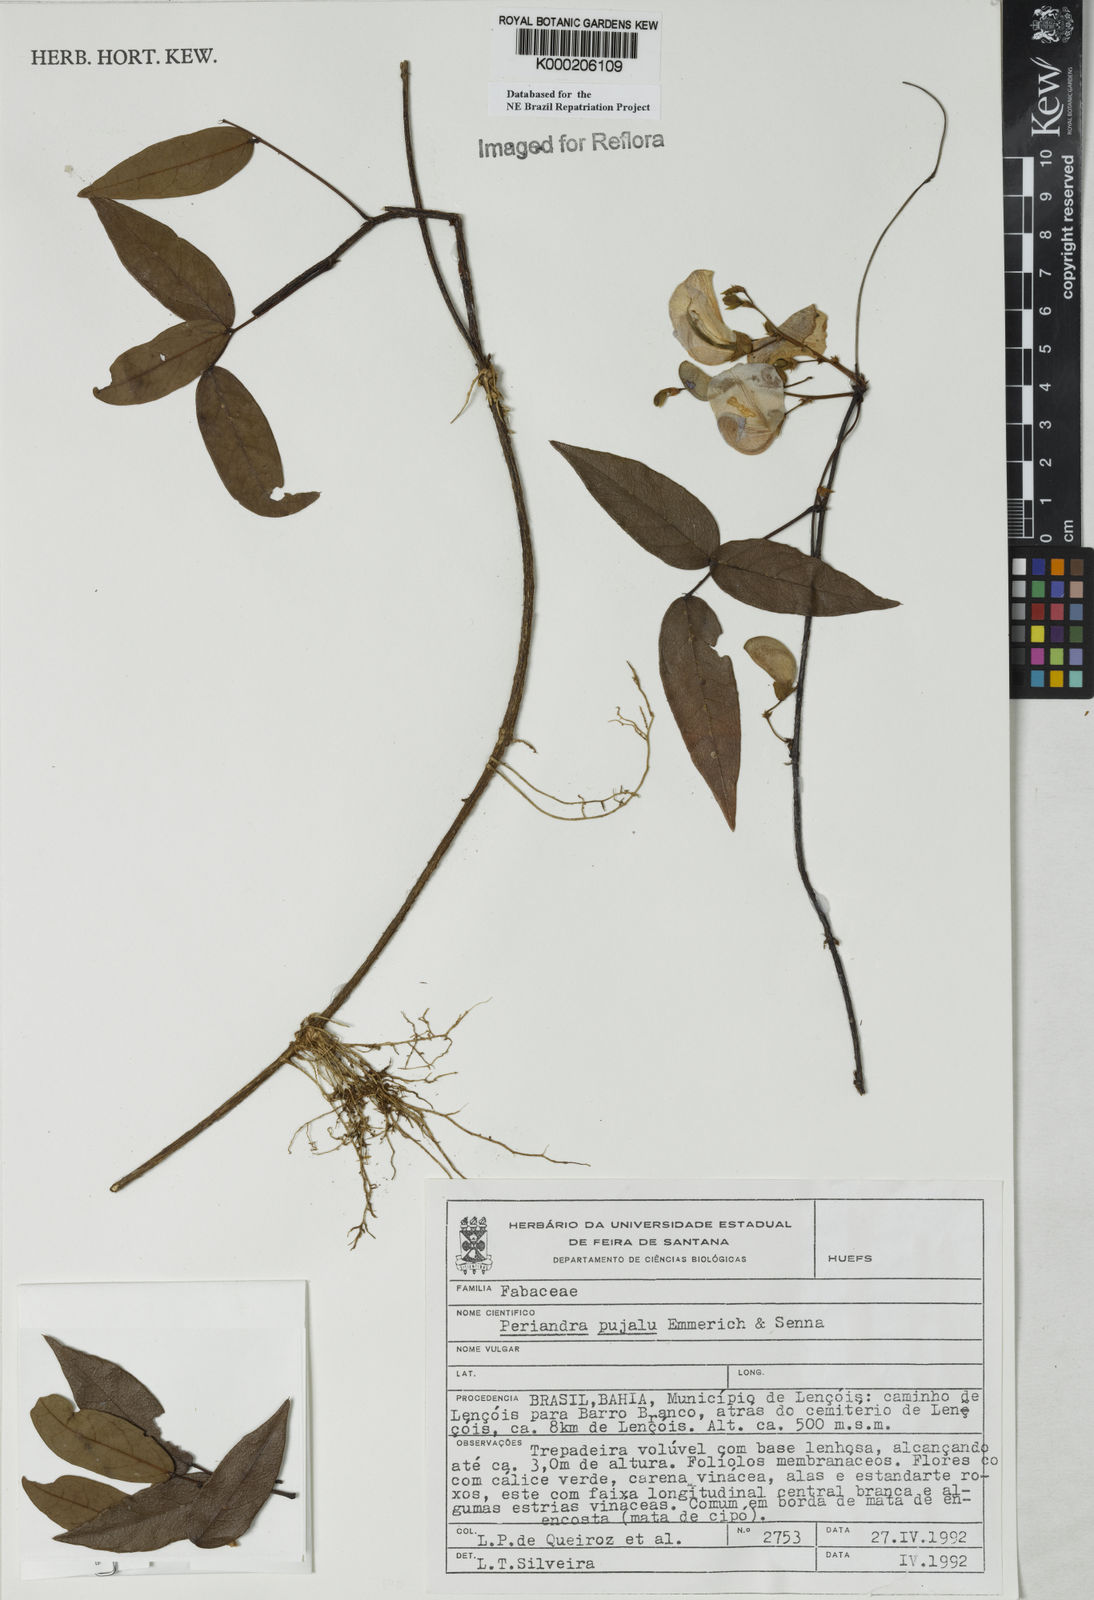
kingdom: Plantae
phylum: Tracheophyta
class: Magnoliopsida
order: Fabales
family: Fabaceae
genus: Periandra
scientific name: Periandra pujalu
